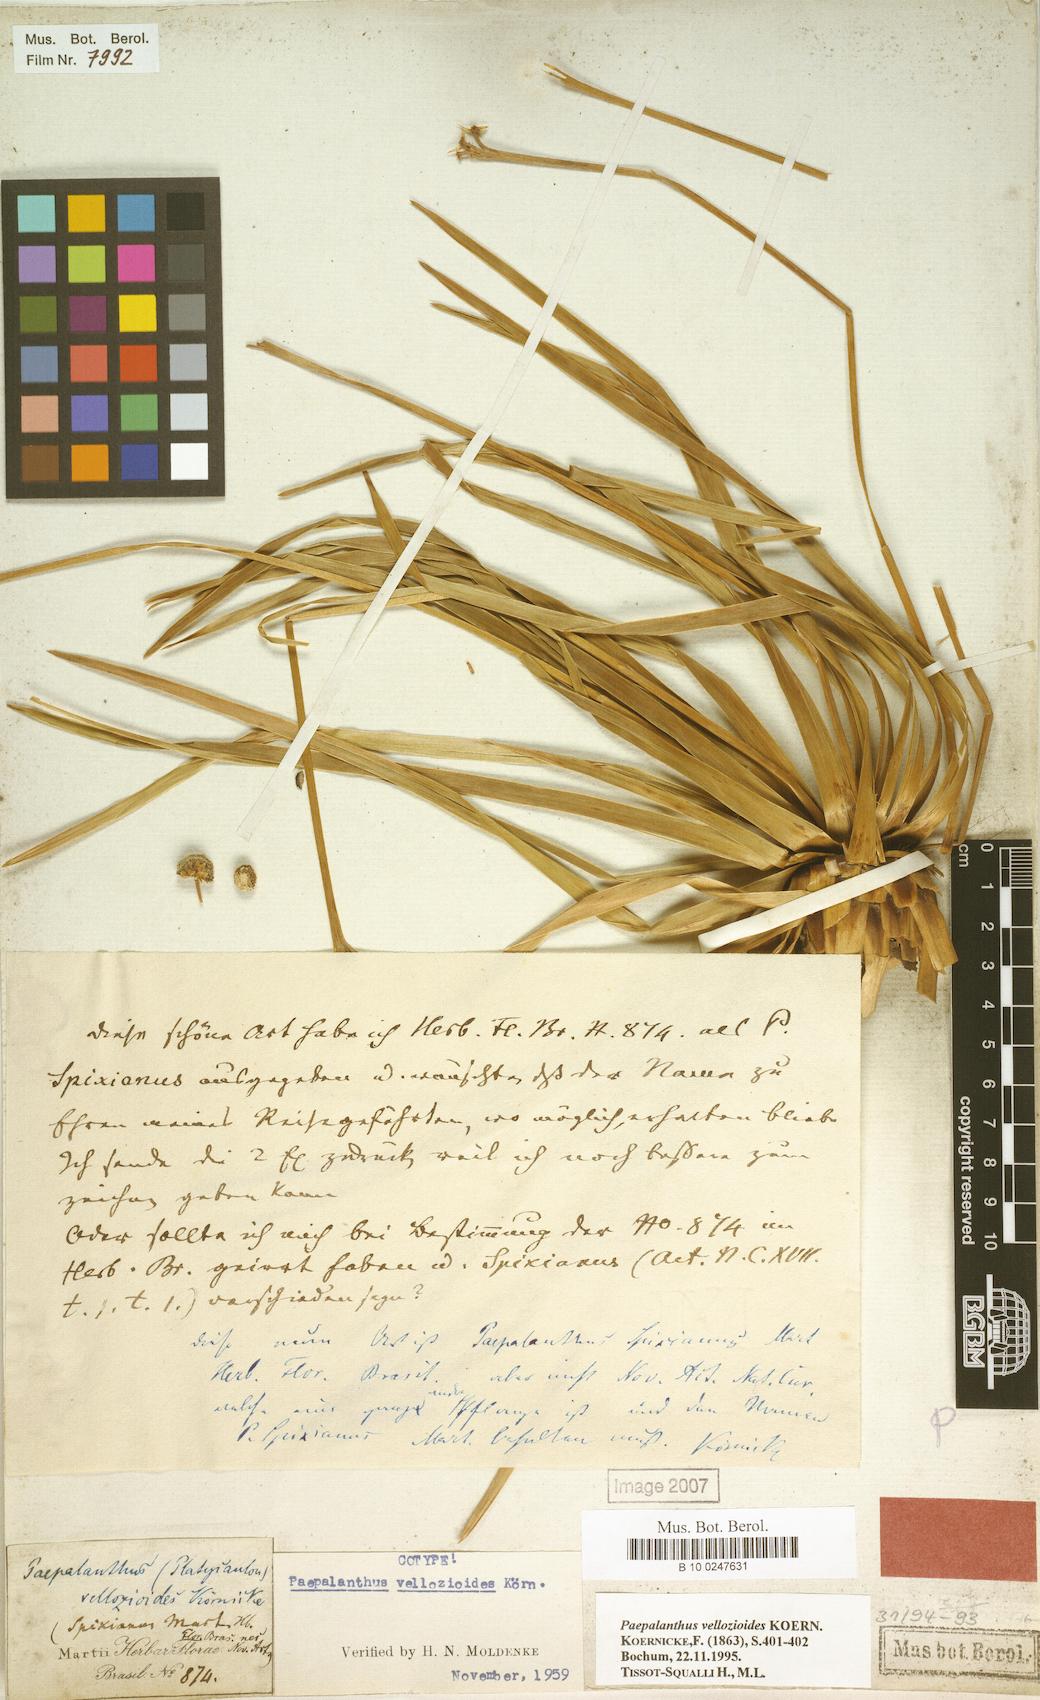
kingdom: Plantae
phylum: Tracheophyta
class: Liliopsida
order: Poales
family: Eriocaulaceae
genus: Paepalanthus
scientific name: Paepalanthus vellozioides
